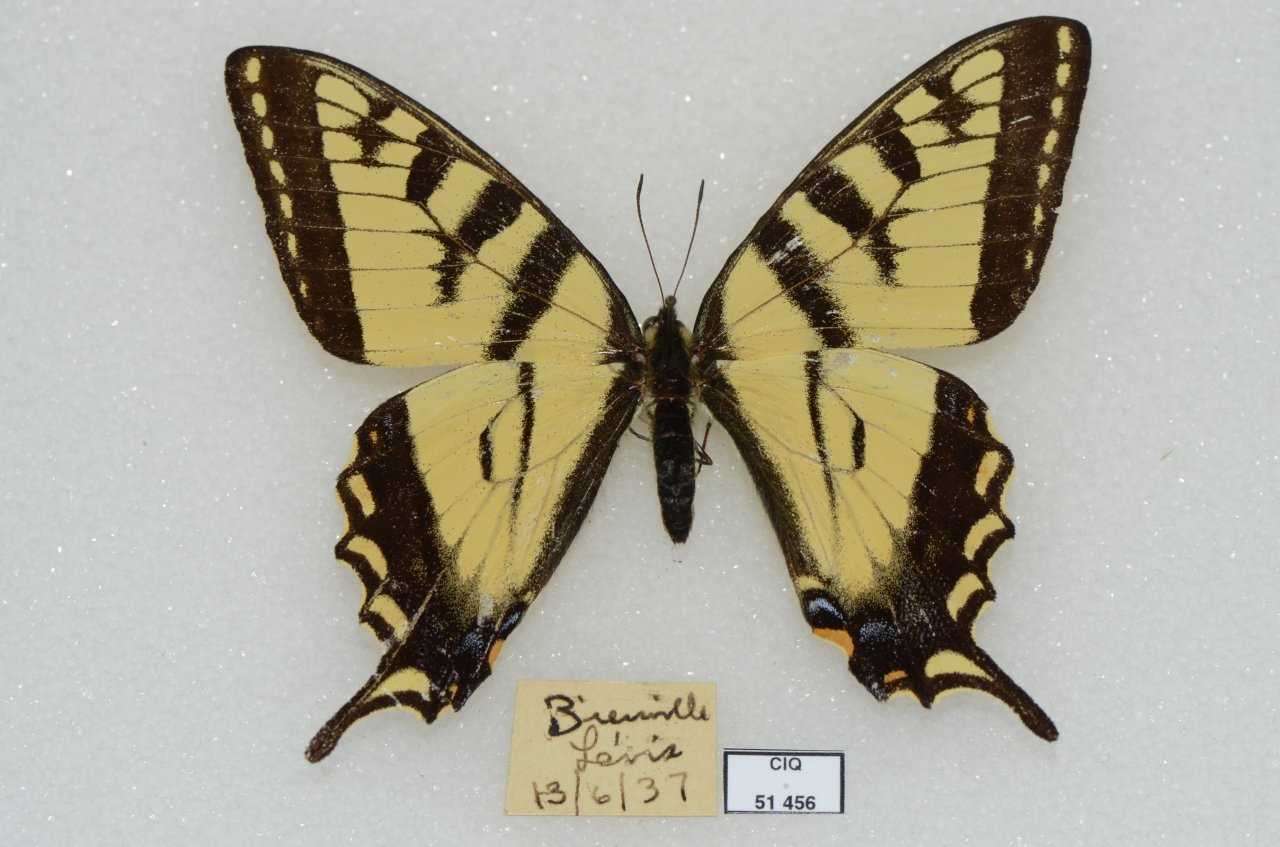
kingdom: Animalia
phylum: Arthropoda
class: Insecta
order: Lepidoptera
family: Papilionidae
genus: Pterourus
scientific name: Pterourus canadensis
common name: Canadian Tiger Swallowtail
